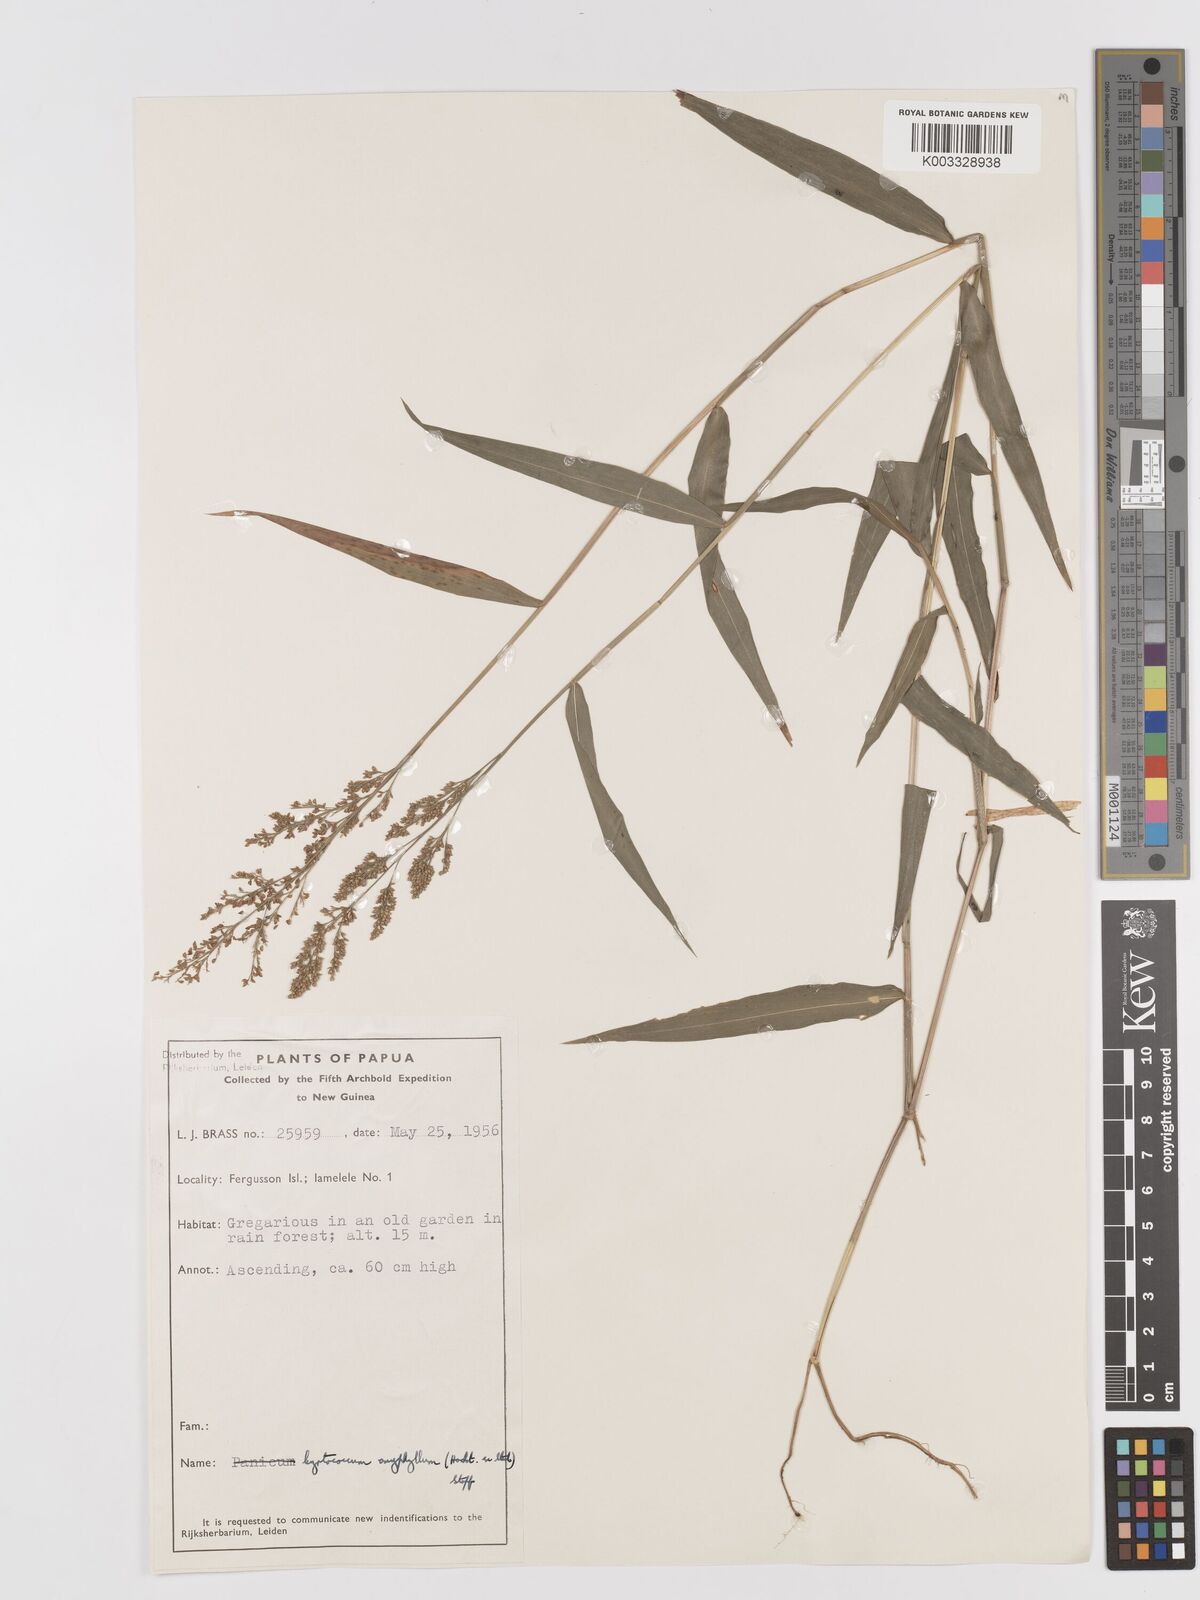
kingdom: Plantae
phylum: Tracheophyta
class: Liliopsida
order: Poales
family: Poaceae
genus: Cyrtococcum
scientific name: Cyrtococcum oxyphyllum
